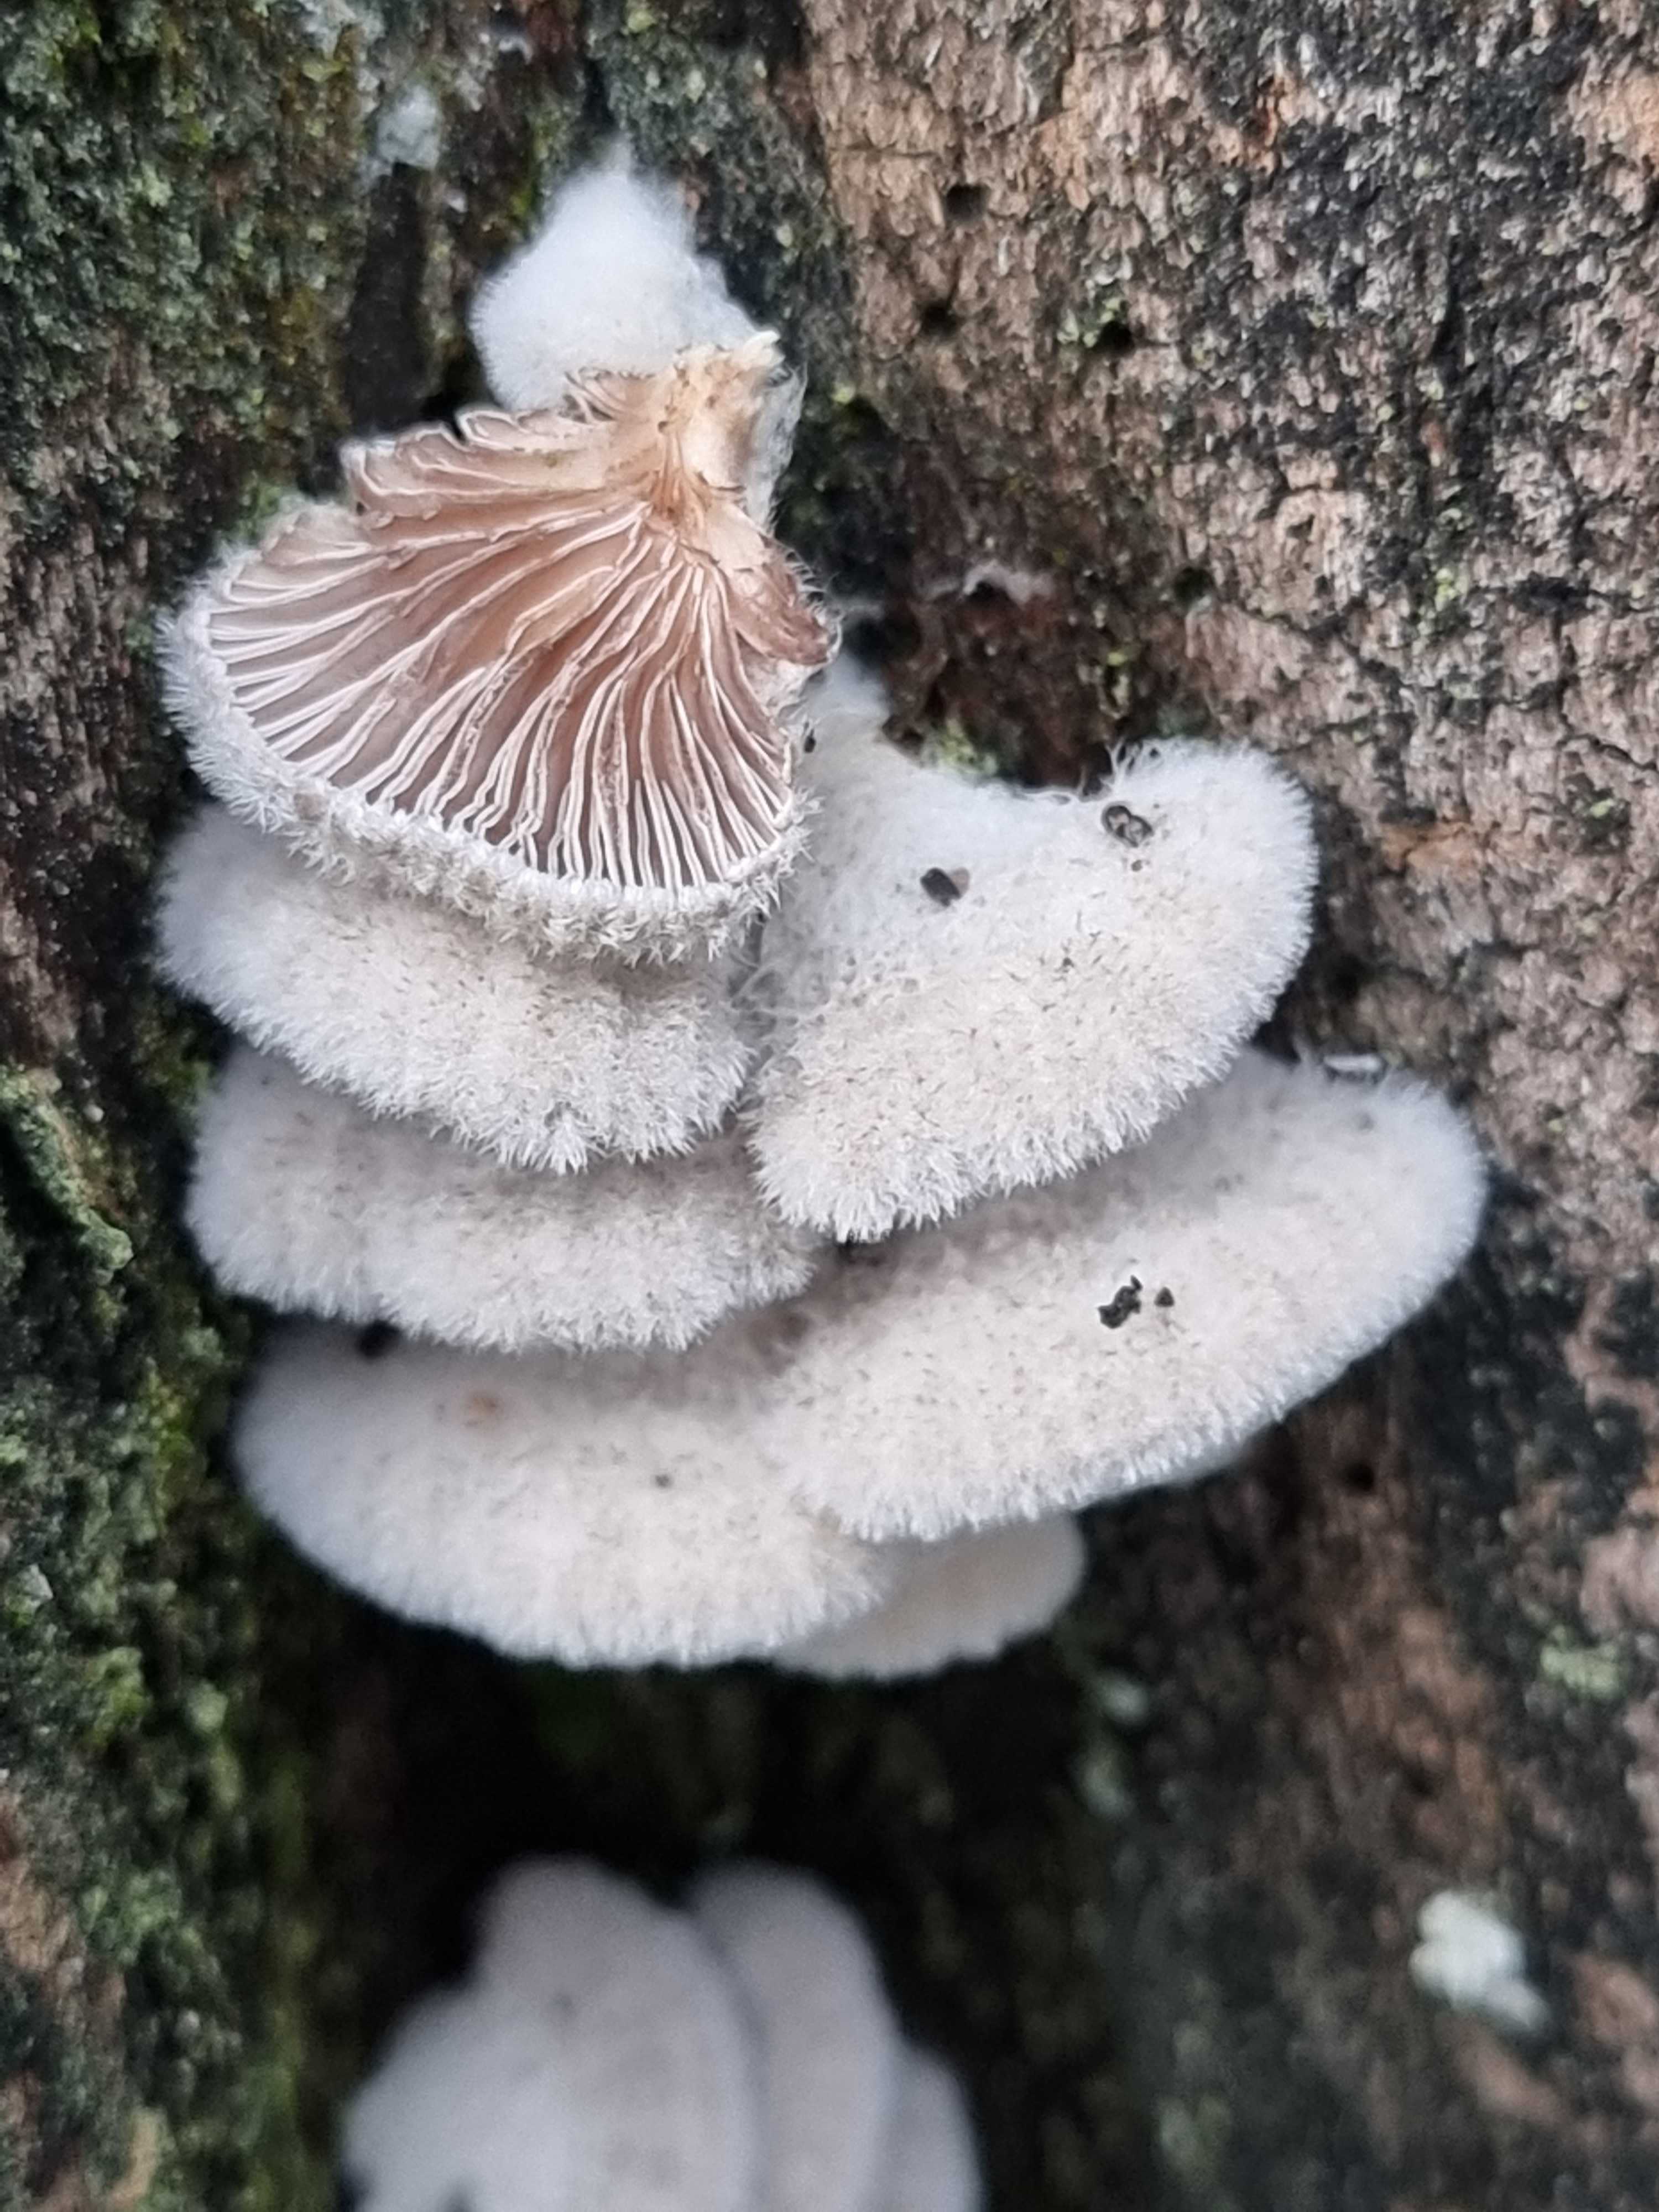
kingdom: Fungi
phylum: Basidiomycota
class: Agaricomycetes
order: Agaricales
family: Schizophyllaceae
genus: Schizophyllum
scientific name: Schizophyllum commune
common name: kløvblad
